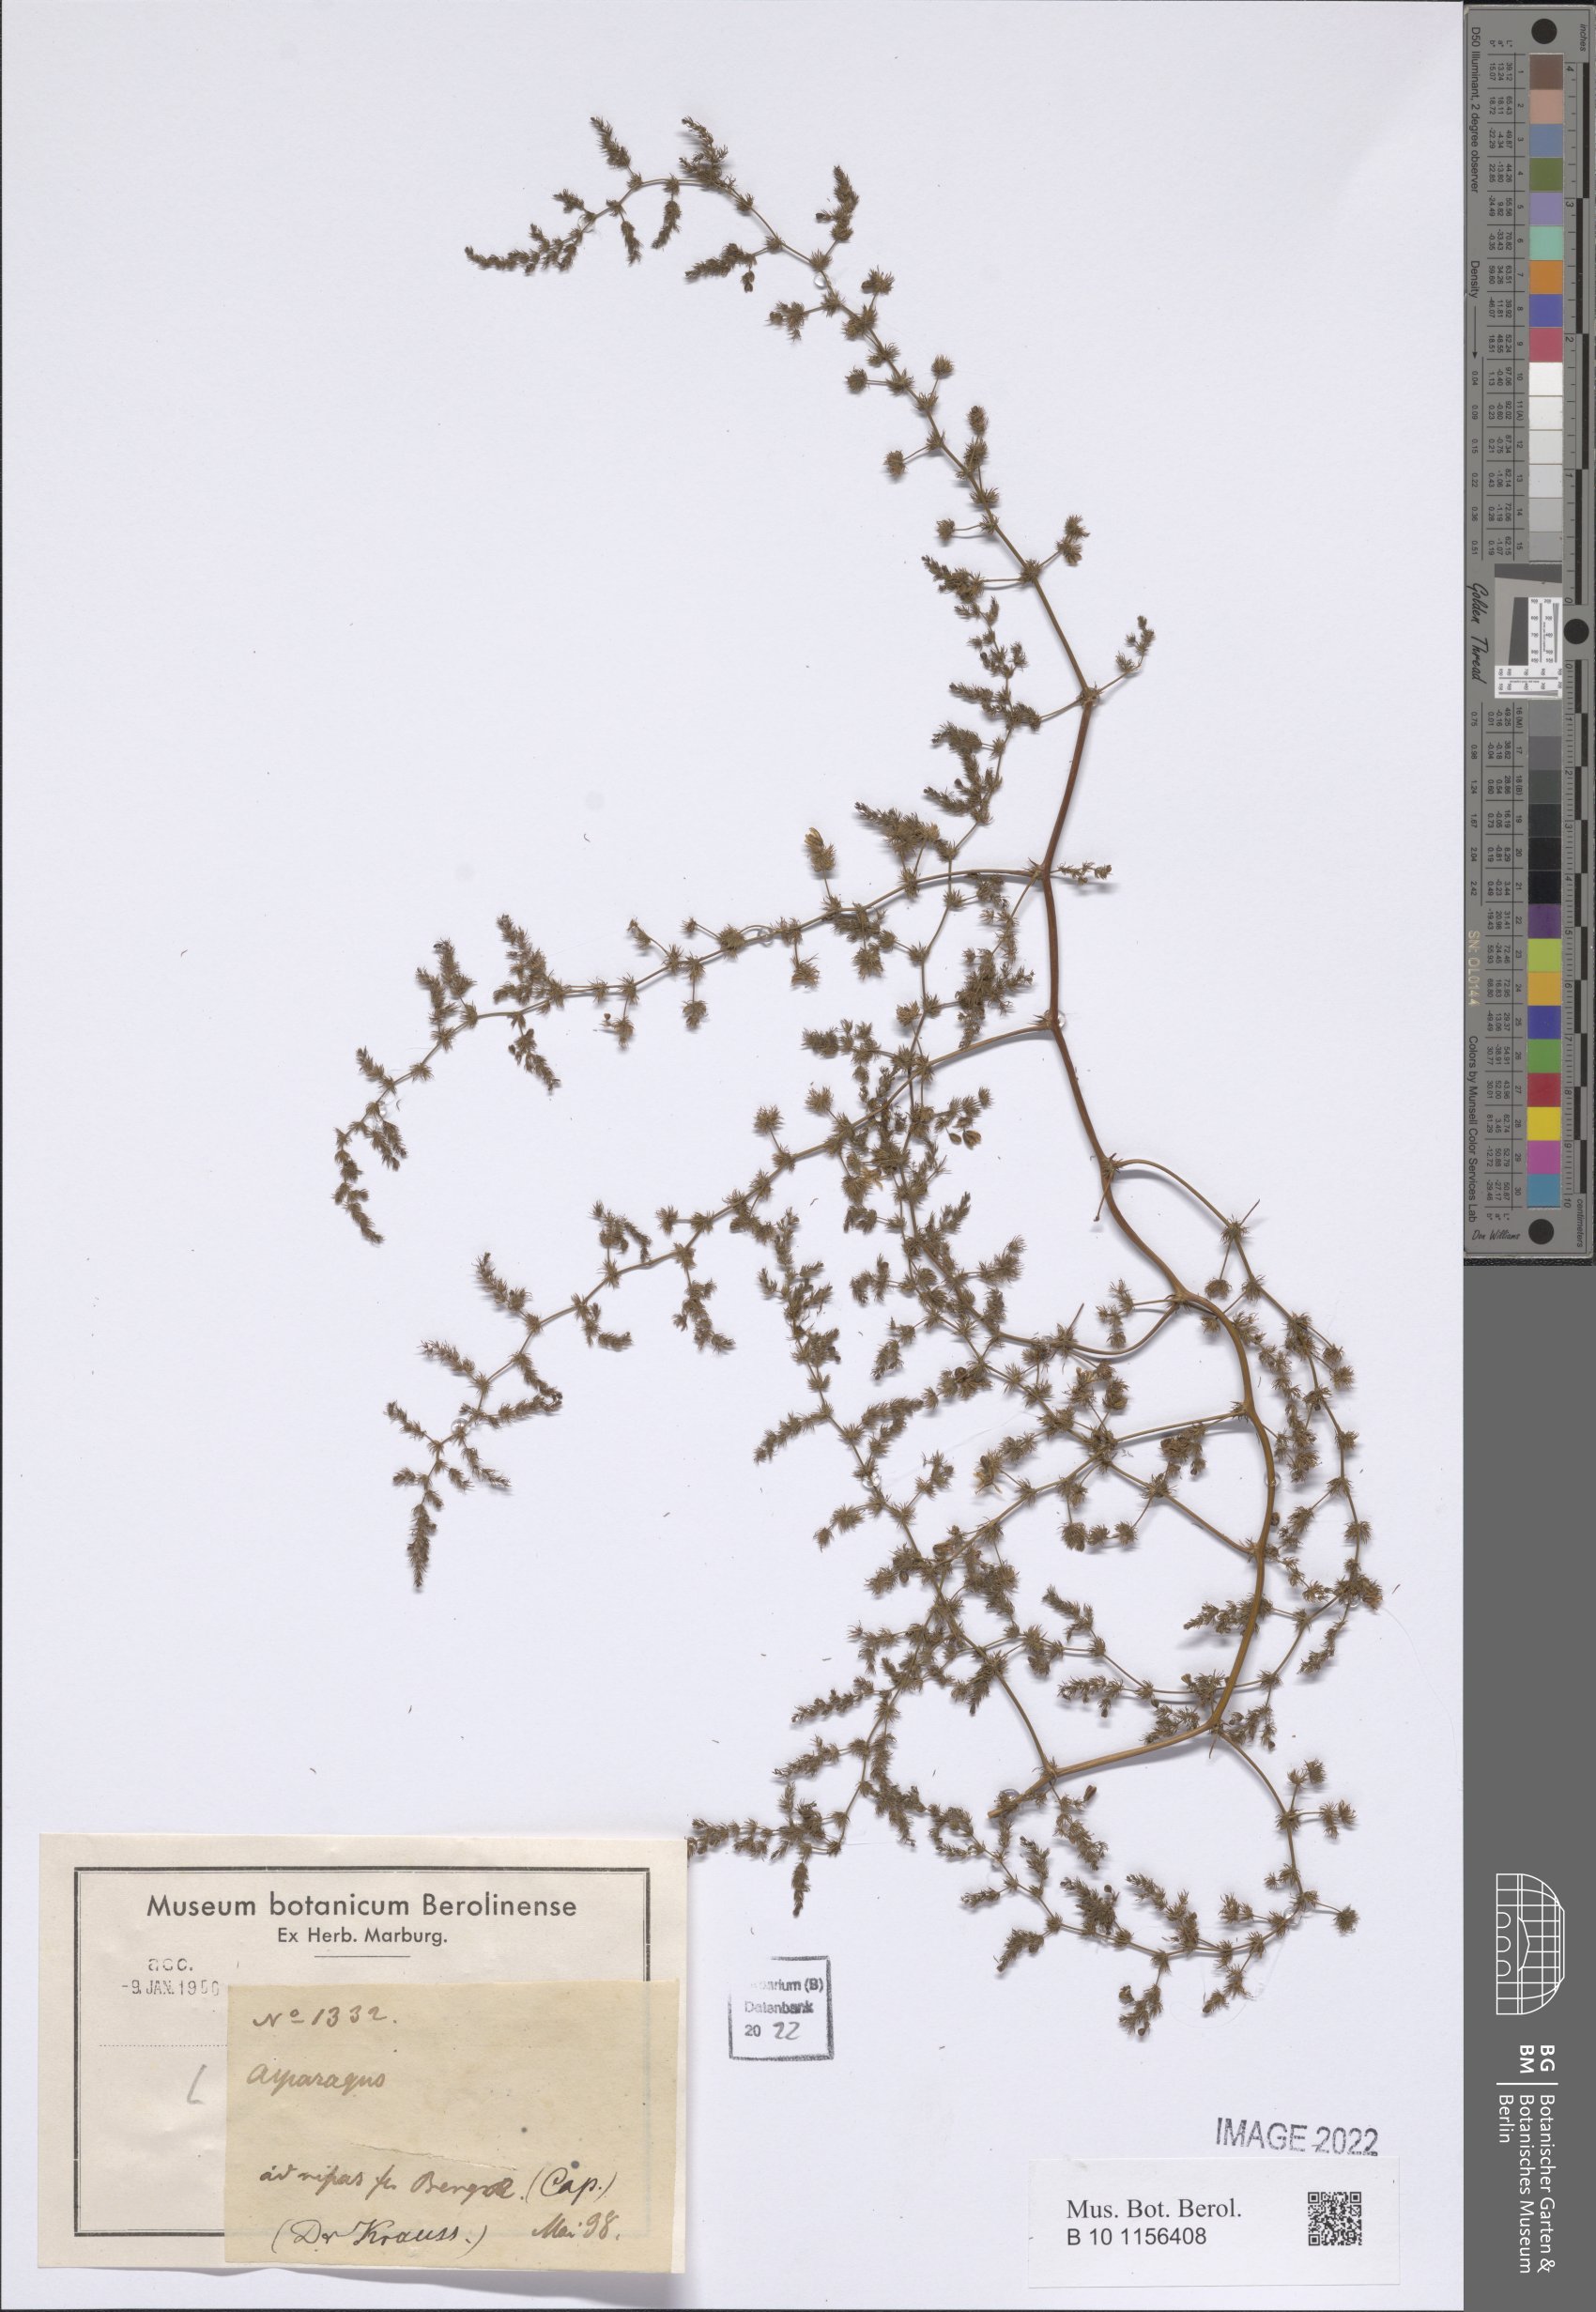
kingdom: Plantae
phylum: Tracheophyta
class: Liliopsida
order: Asparagales
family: Asparagaceae
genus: Asparagus
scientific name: Asparagus
